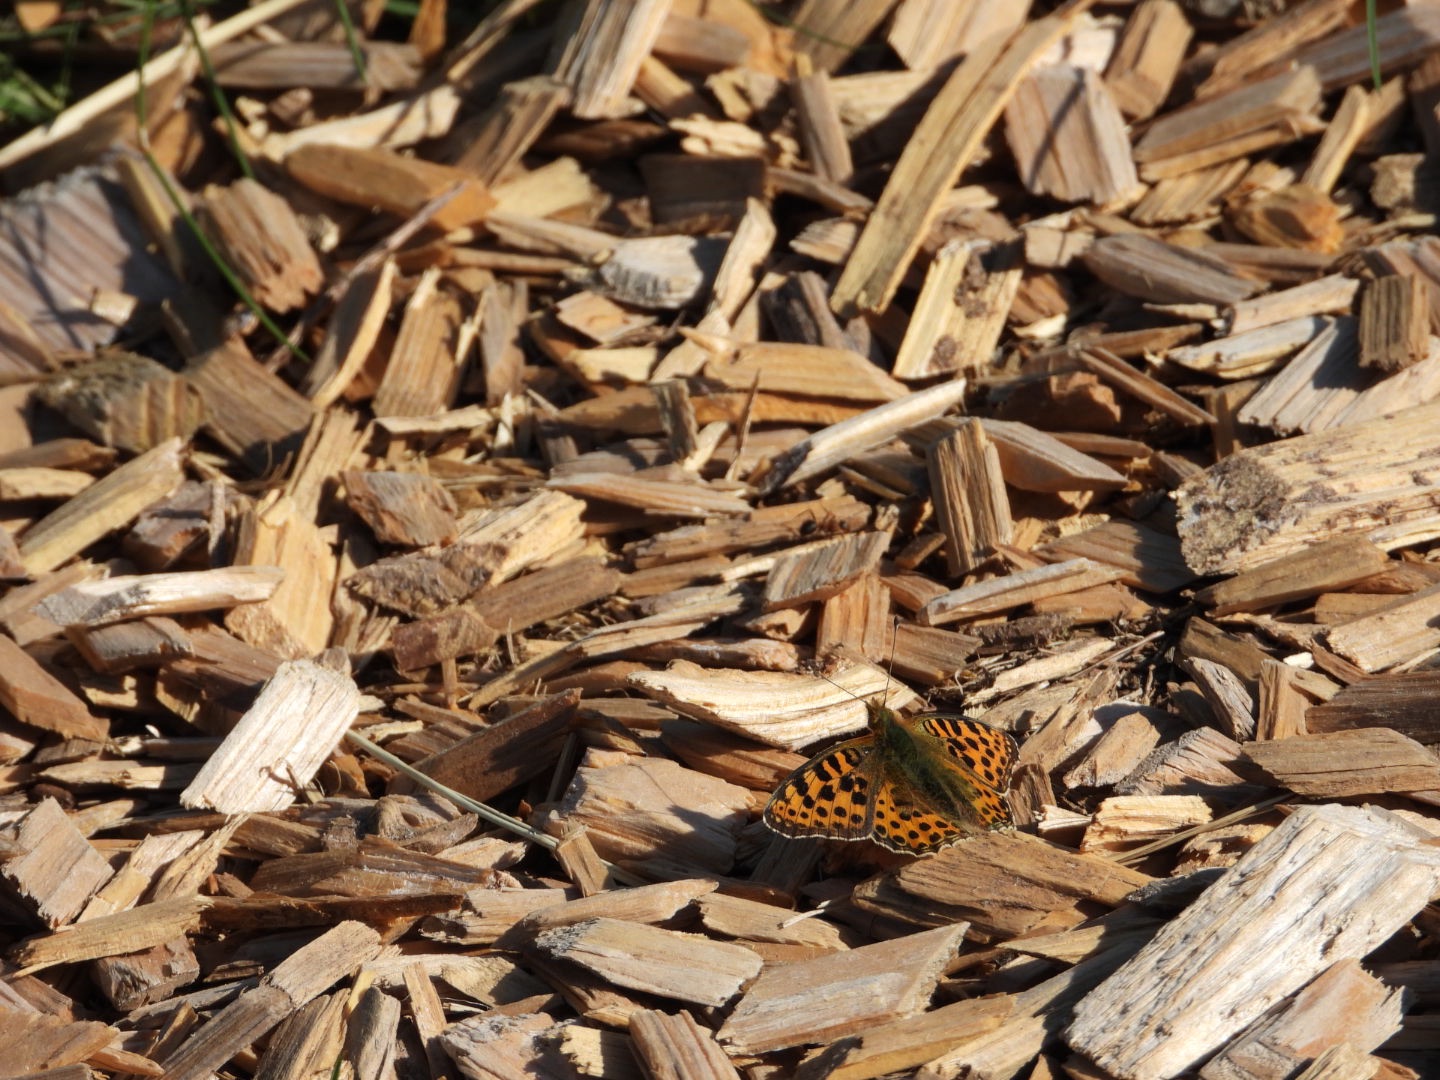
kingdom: Animalia
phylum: Arthropoda
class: Insecta
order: Lepidoptera
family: Nymphalidae
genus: Issoria
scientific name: Issoria lathonia
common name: Storplettet perlemorsommerfugl
